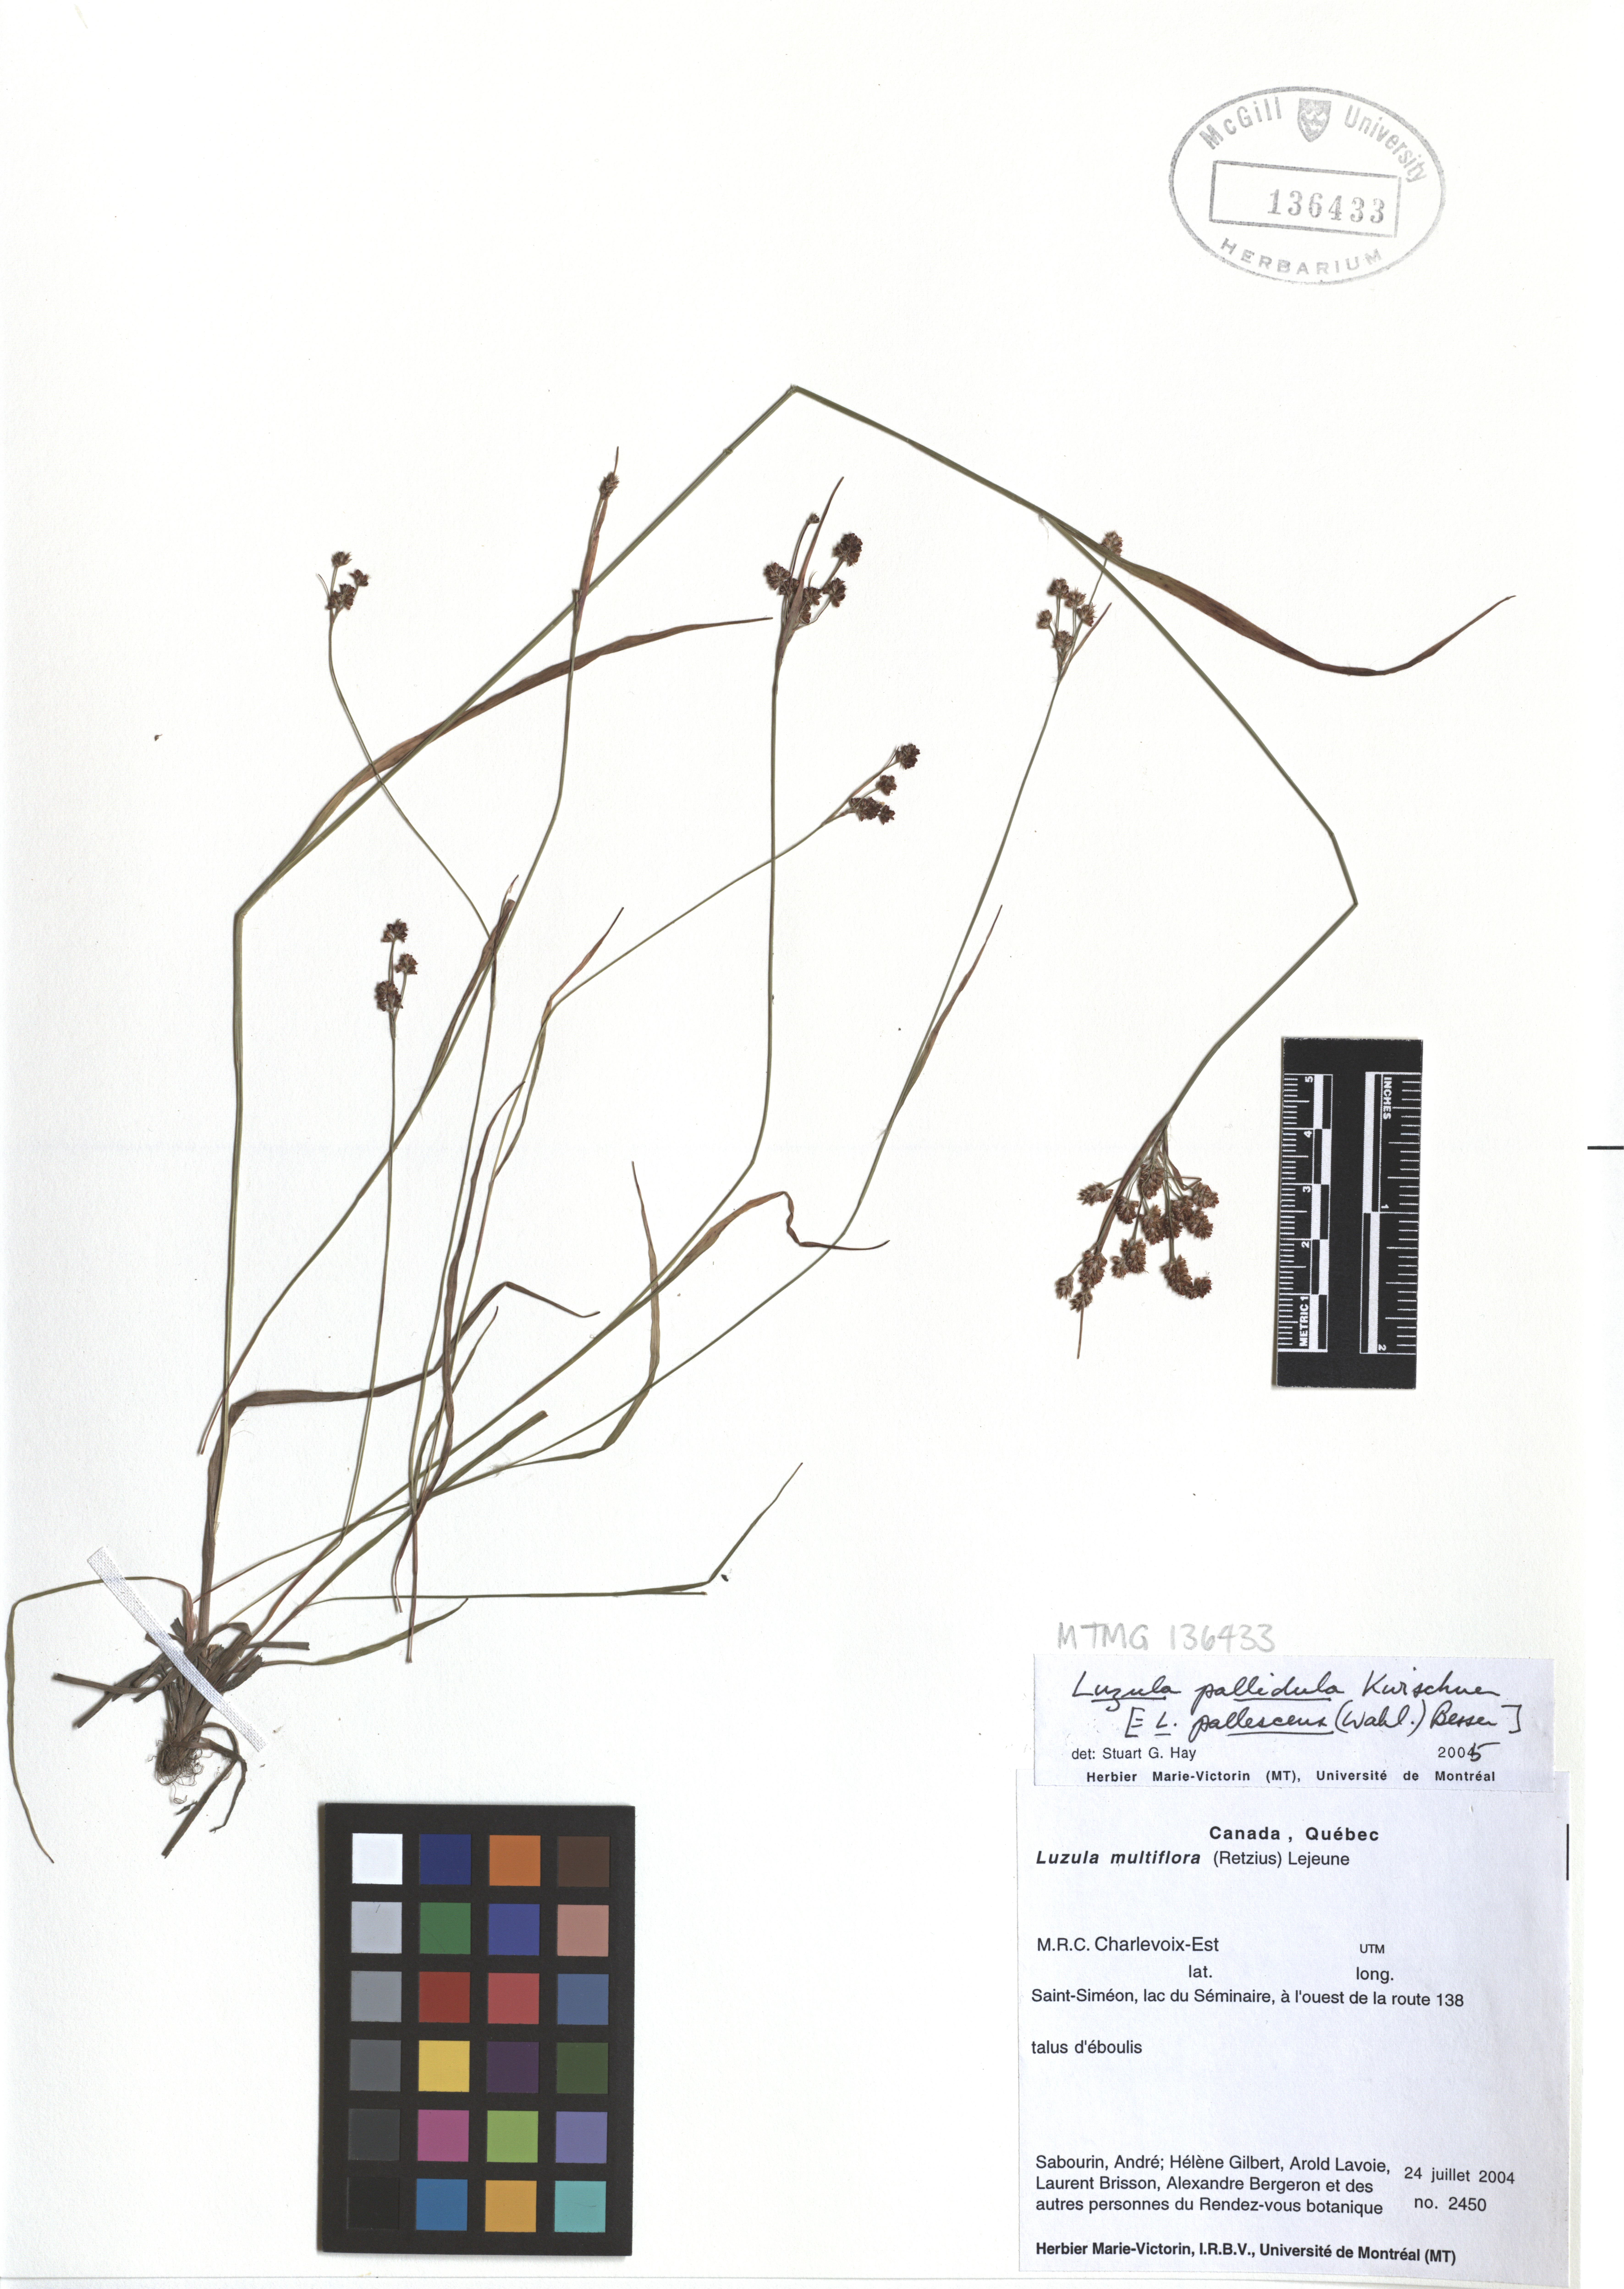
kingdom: Plantae
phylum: Tracheophyta
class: Liliopsida
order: Poales
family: Juncaceae
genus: Luzula
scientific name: Luzula pallescens
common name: Fen wood-rush
